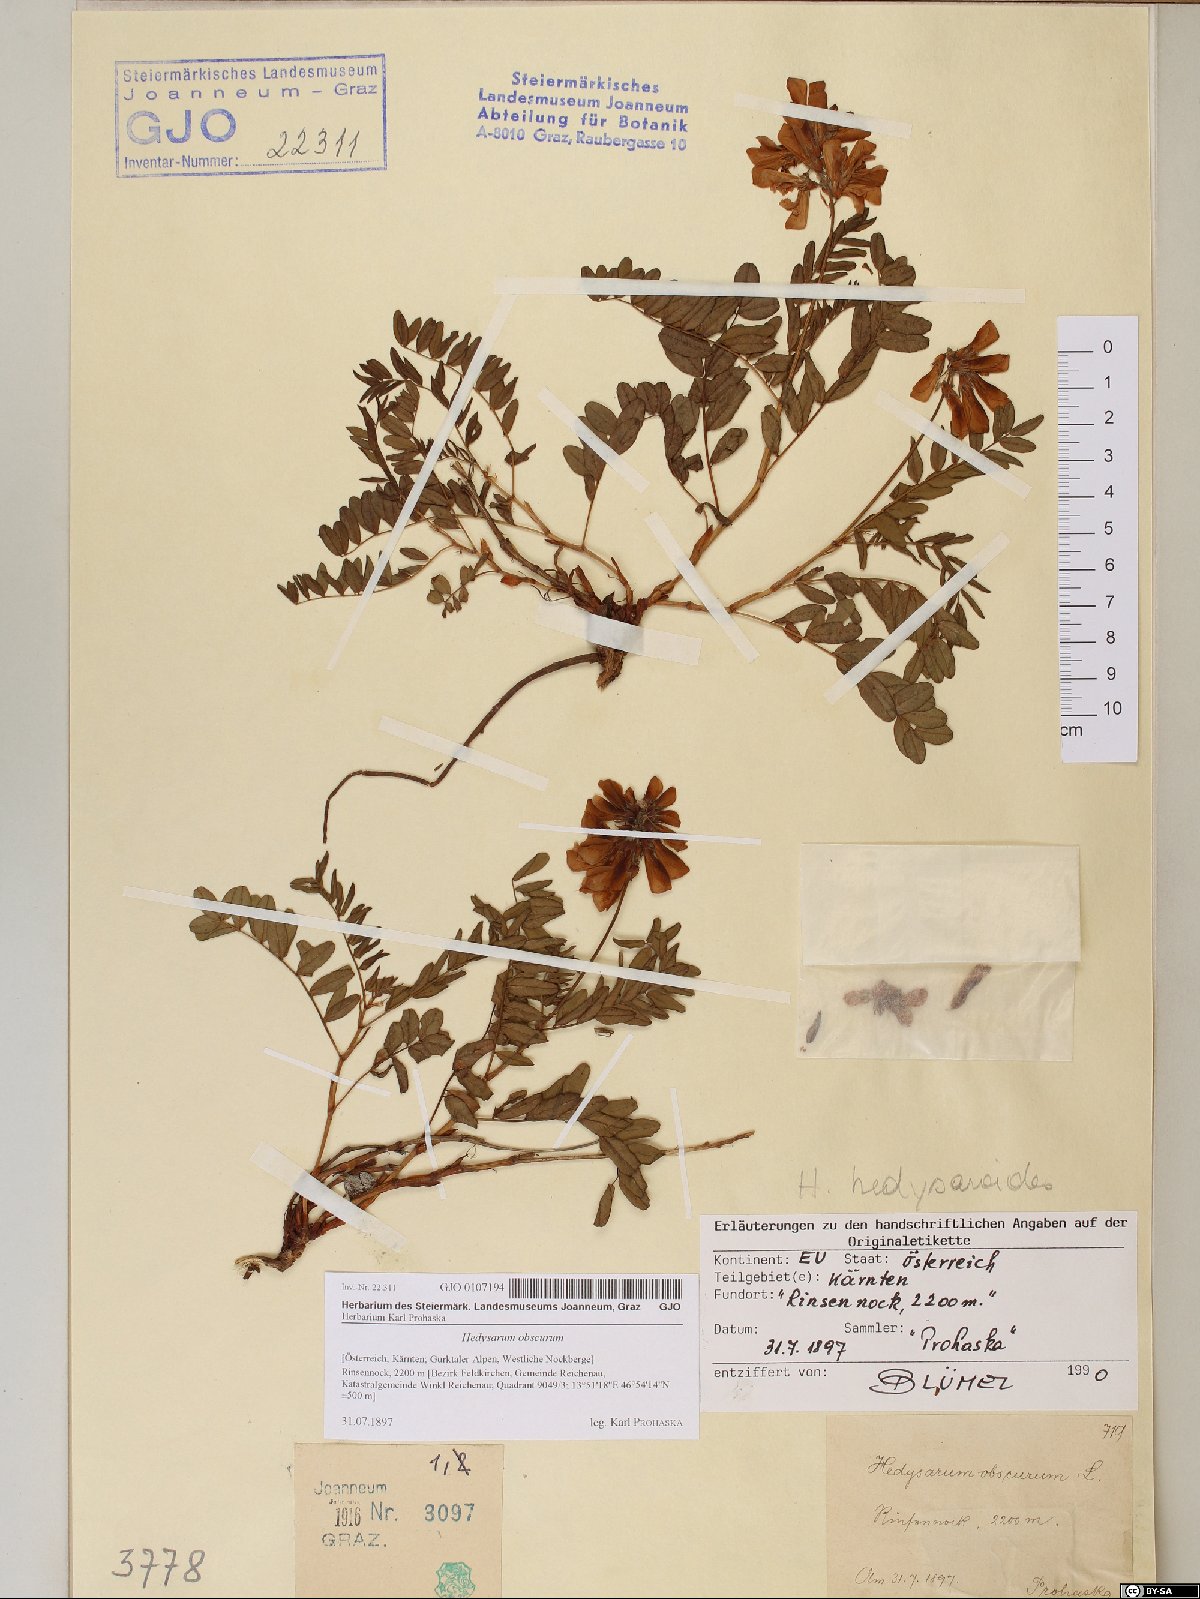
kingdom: Plantae
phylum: Tracheophyta
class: Magnoliopsida
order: Fabales
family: Fabaceae
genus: Hedysarum
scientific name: Hedysarum hedysaroides
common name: Alpine french-honeysuckle
